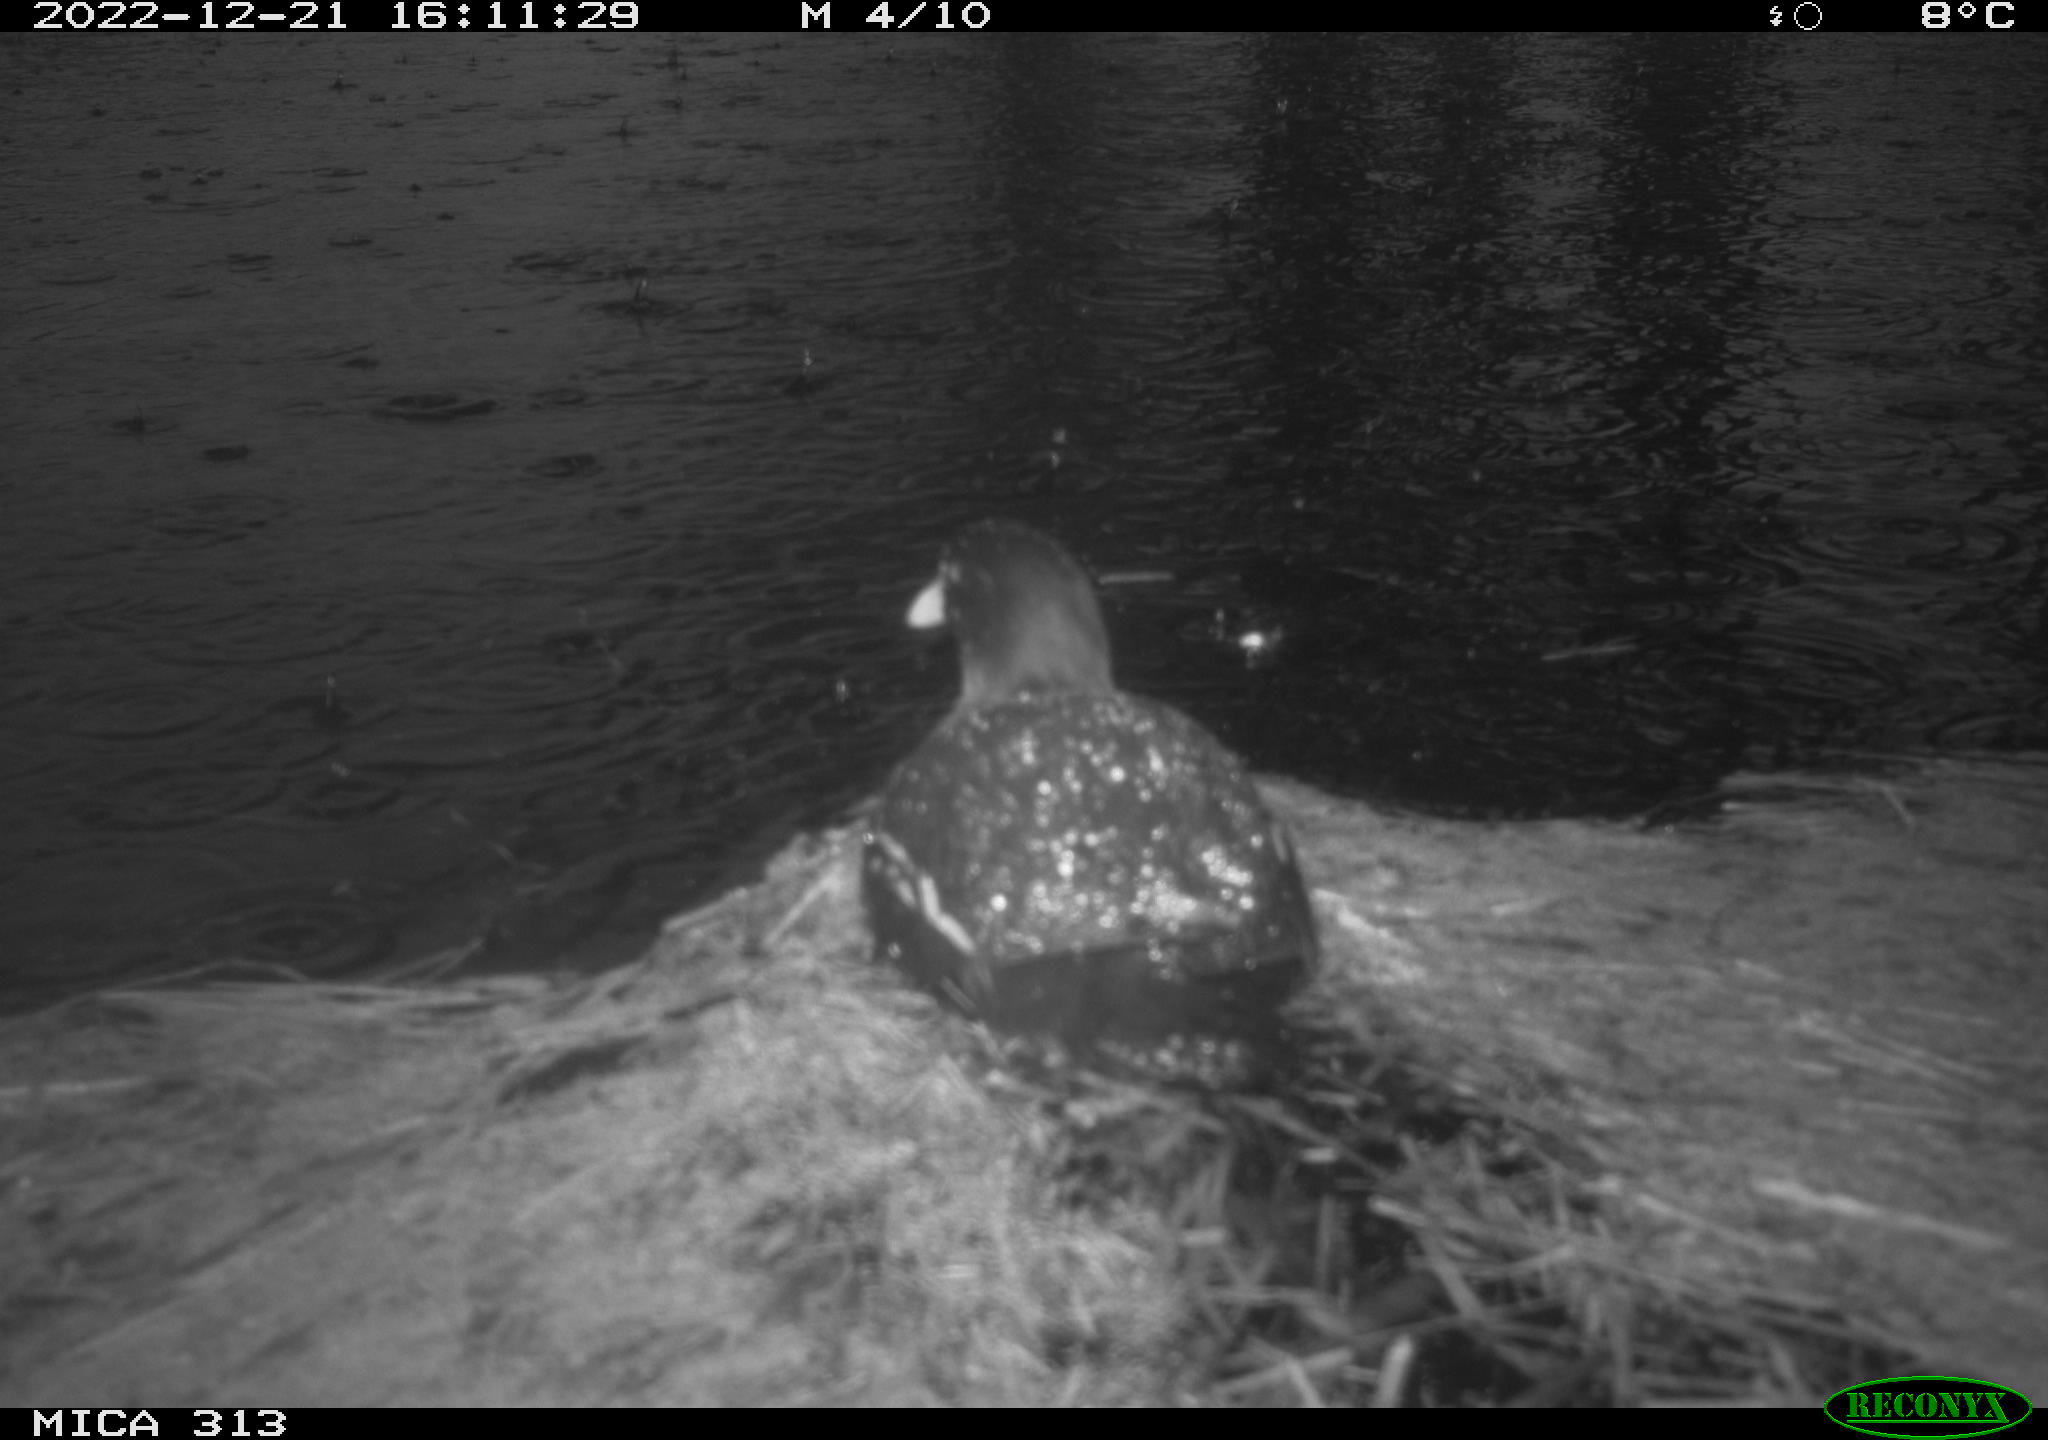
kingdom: Animalia
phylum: Chordata
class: Aves
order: Anseriformes
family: Anatidae
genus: Anas
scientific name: Anas
